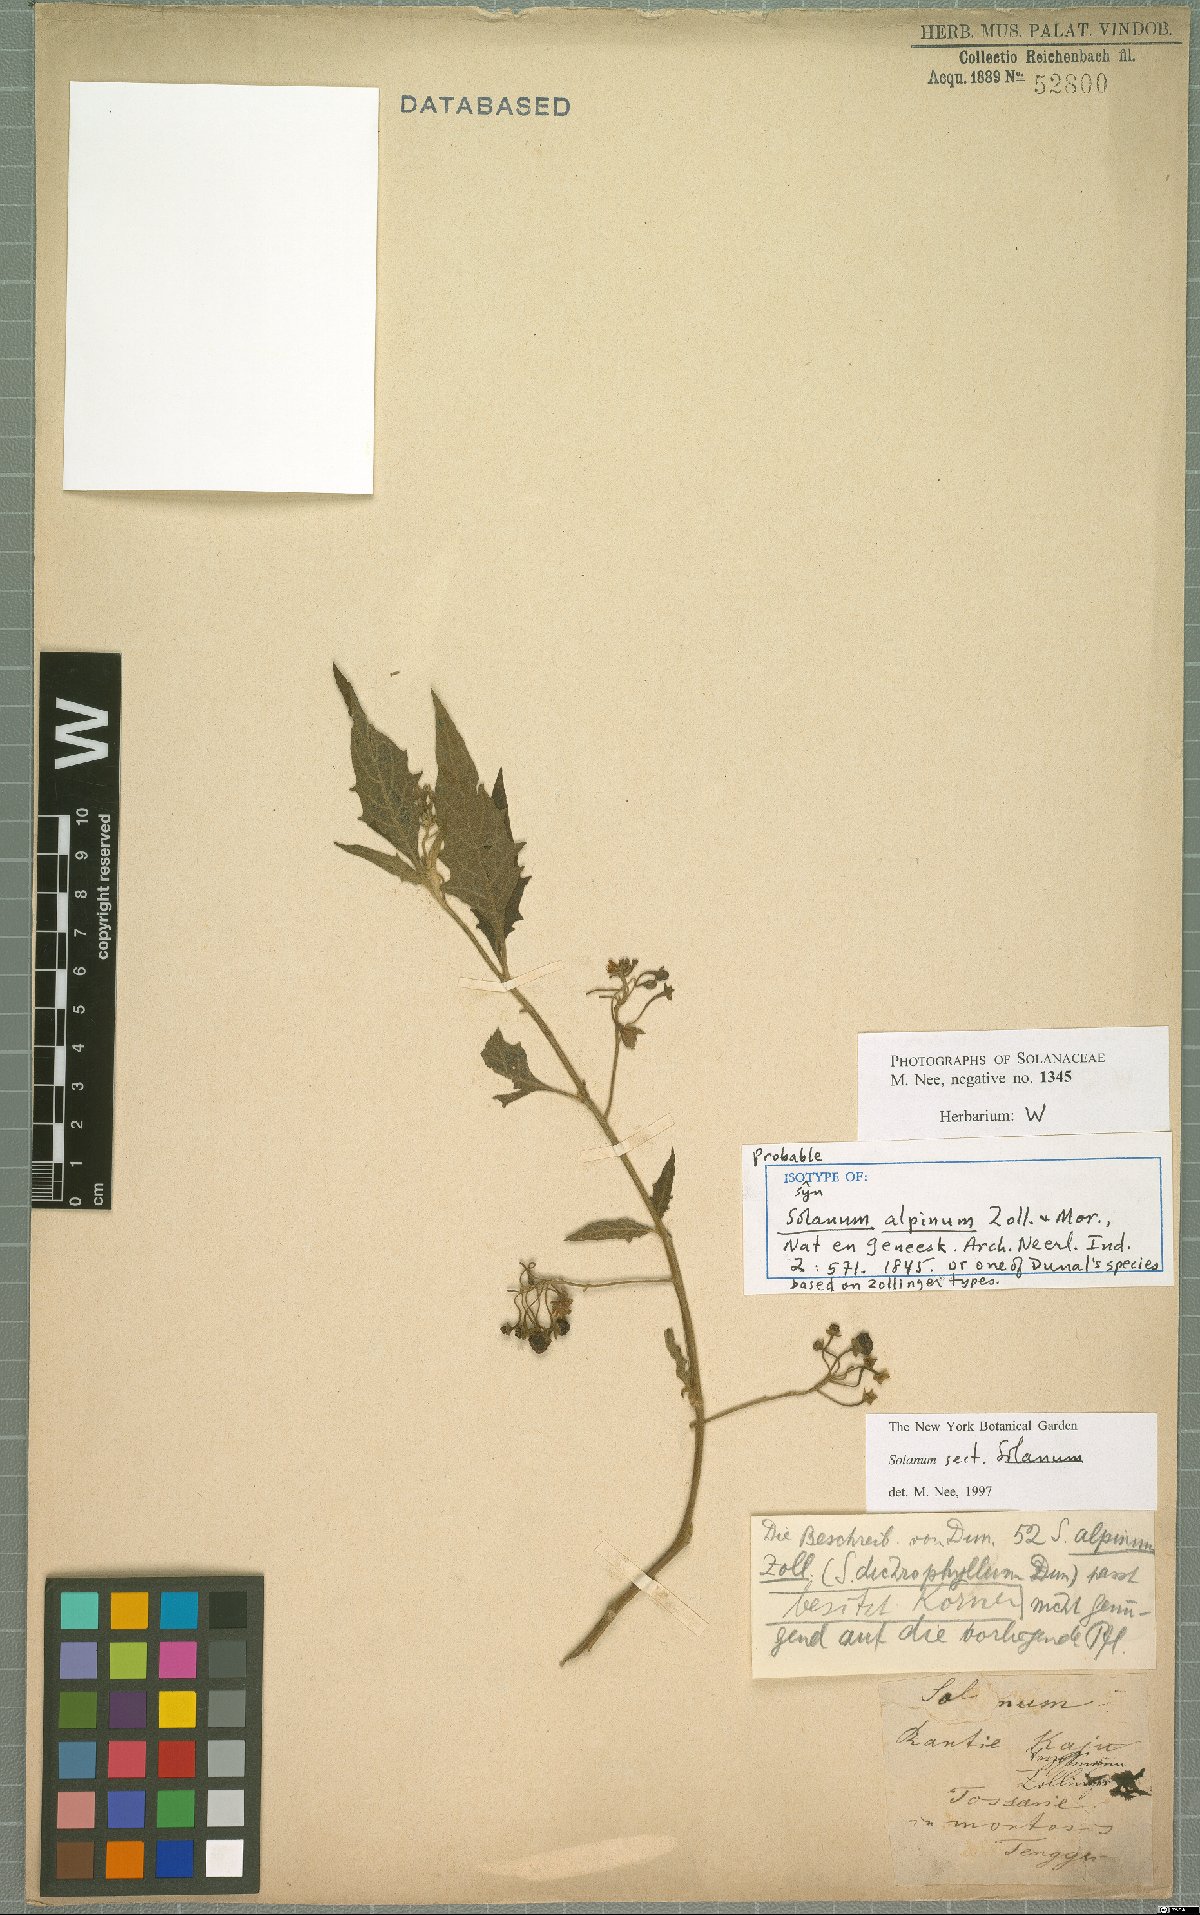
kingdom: Plantae
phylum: Tracheophyta
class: Magnoliopsida
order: Solanales
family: Solanaceae
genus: Solanum
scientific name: Solanum alpinum
